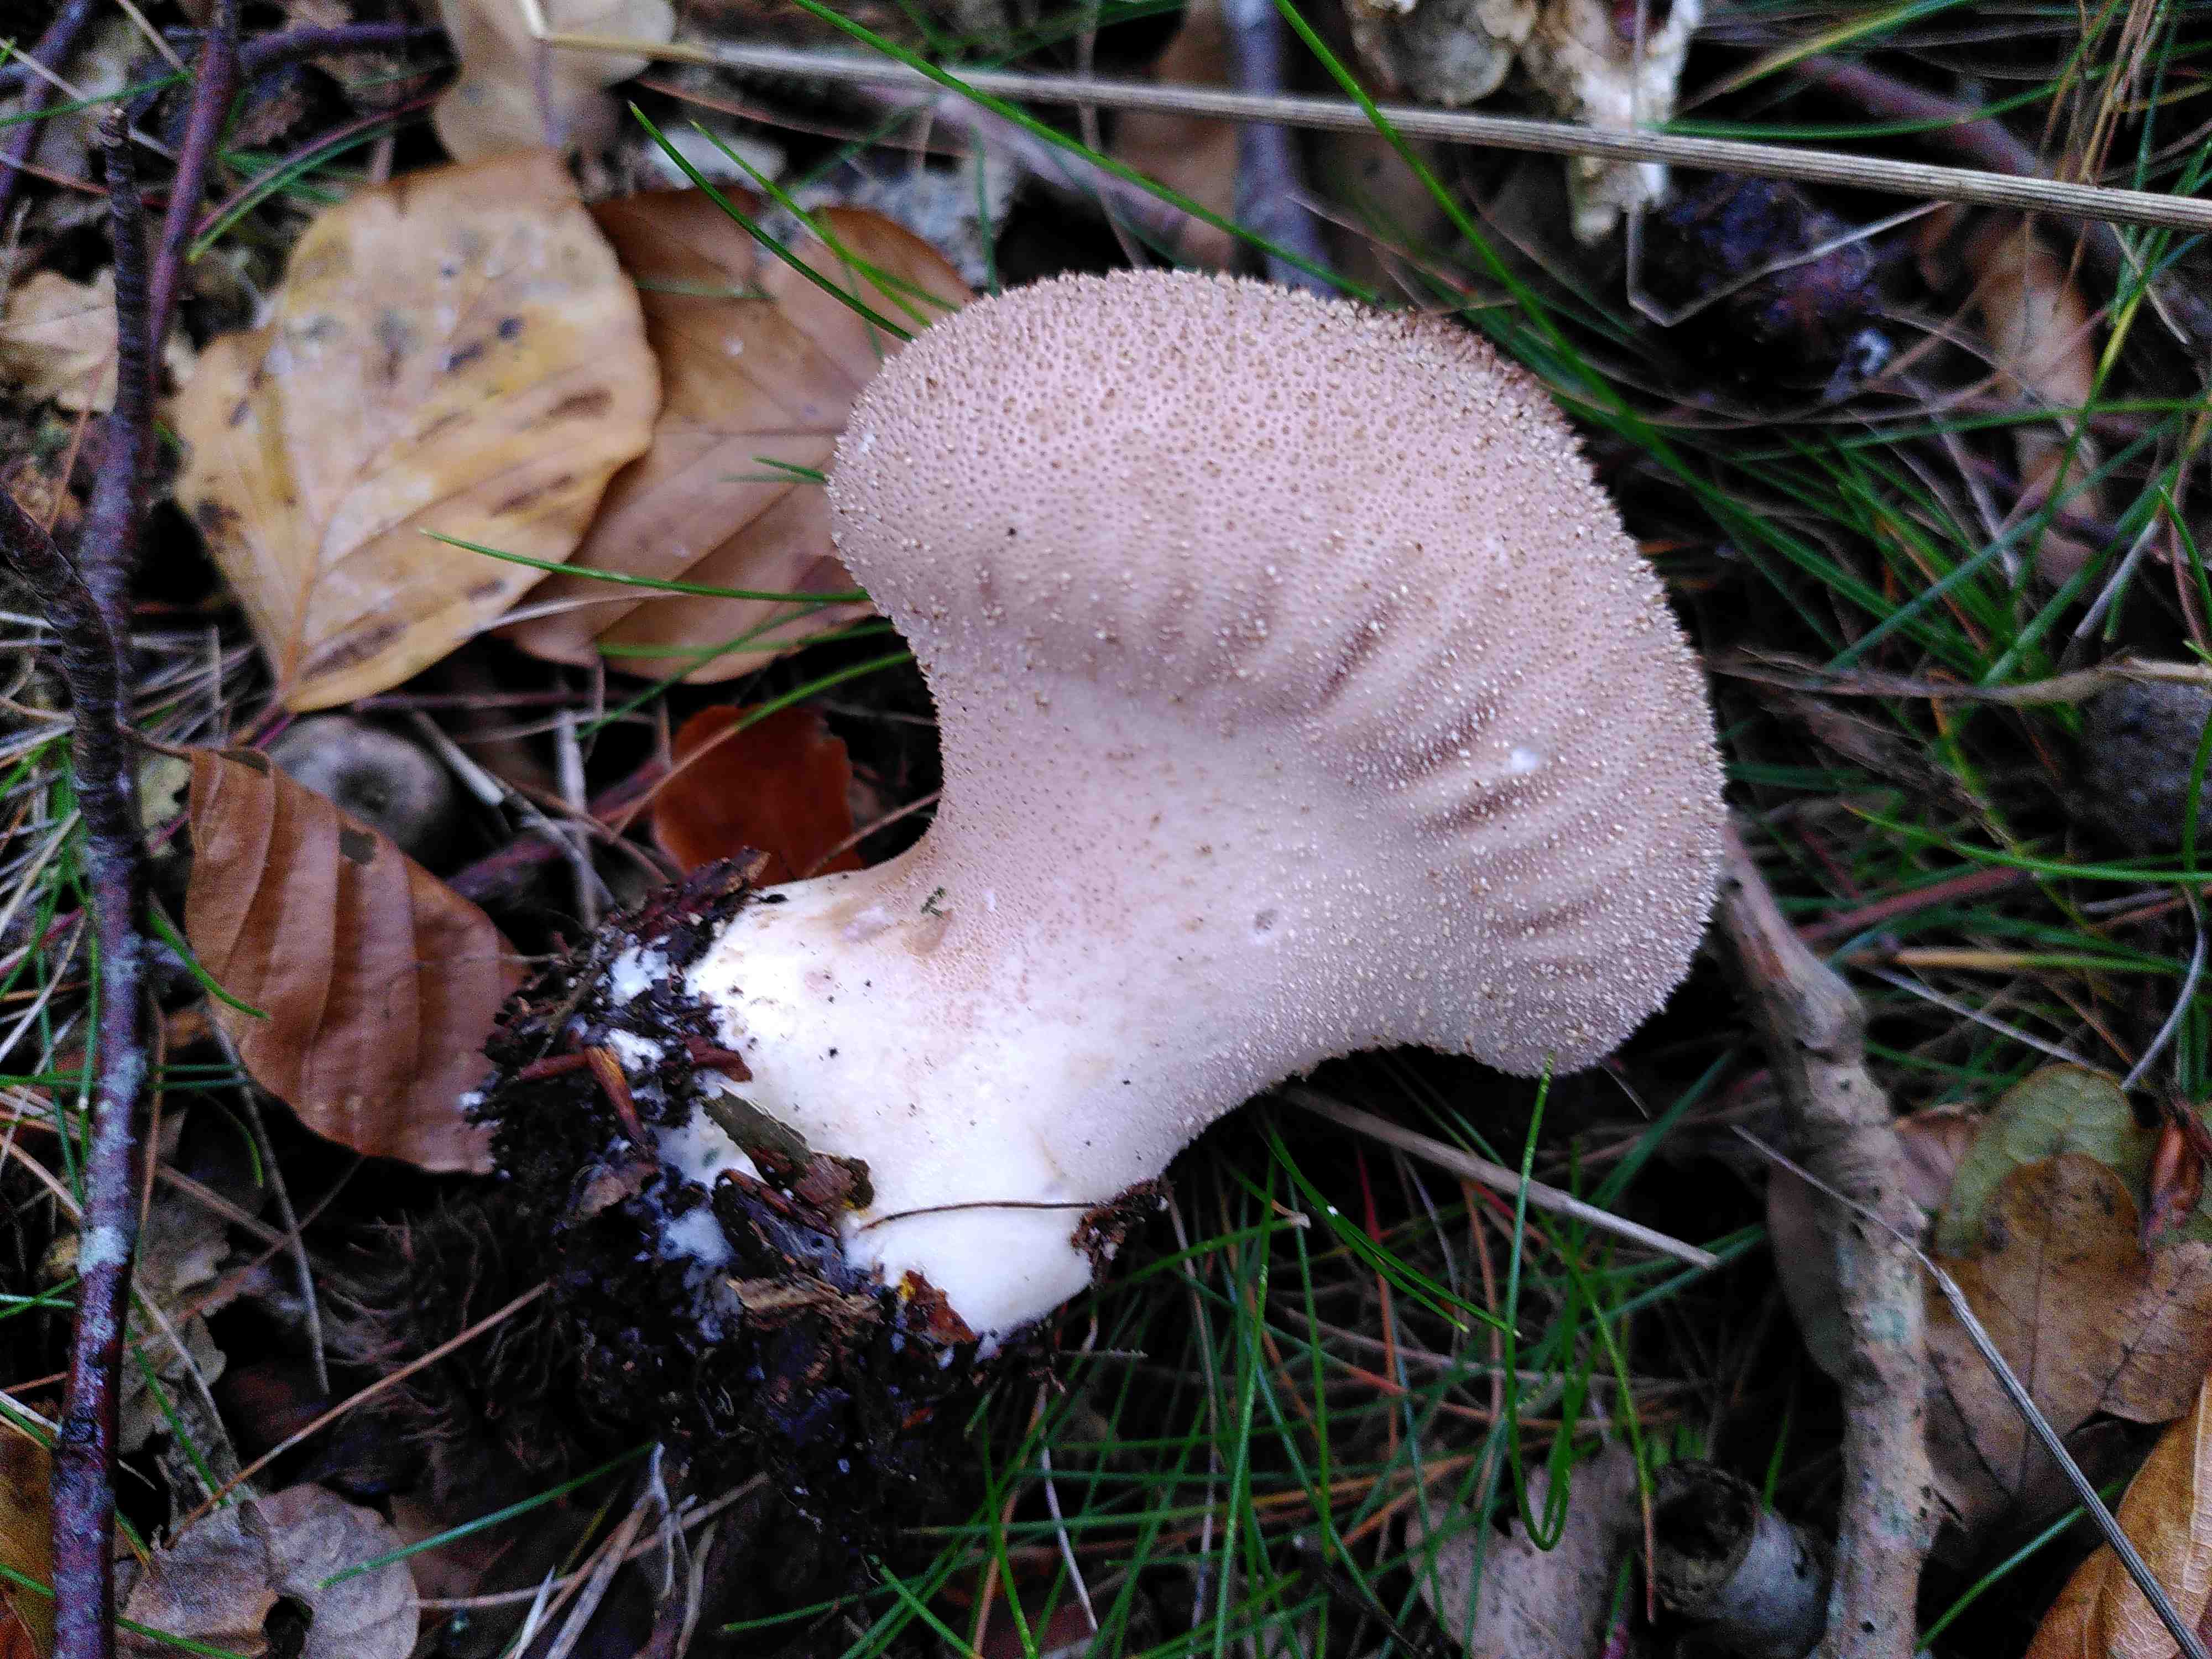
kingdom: Fungi
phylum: Basidiomycota
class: Agaricomycetes
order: Agaricales
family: Lycoperdaceae
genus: Lycoperdon
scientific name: Lycoperdon perlatum
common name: krystal-støvbold
